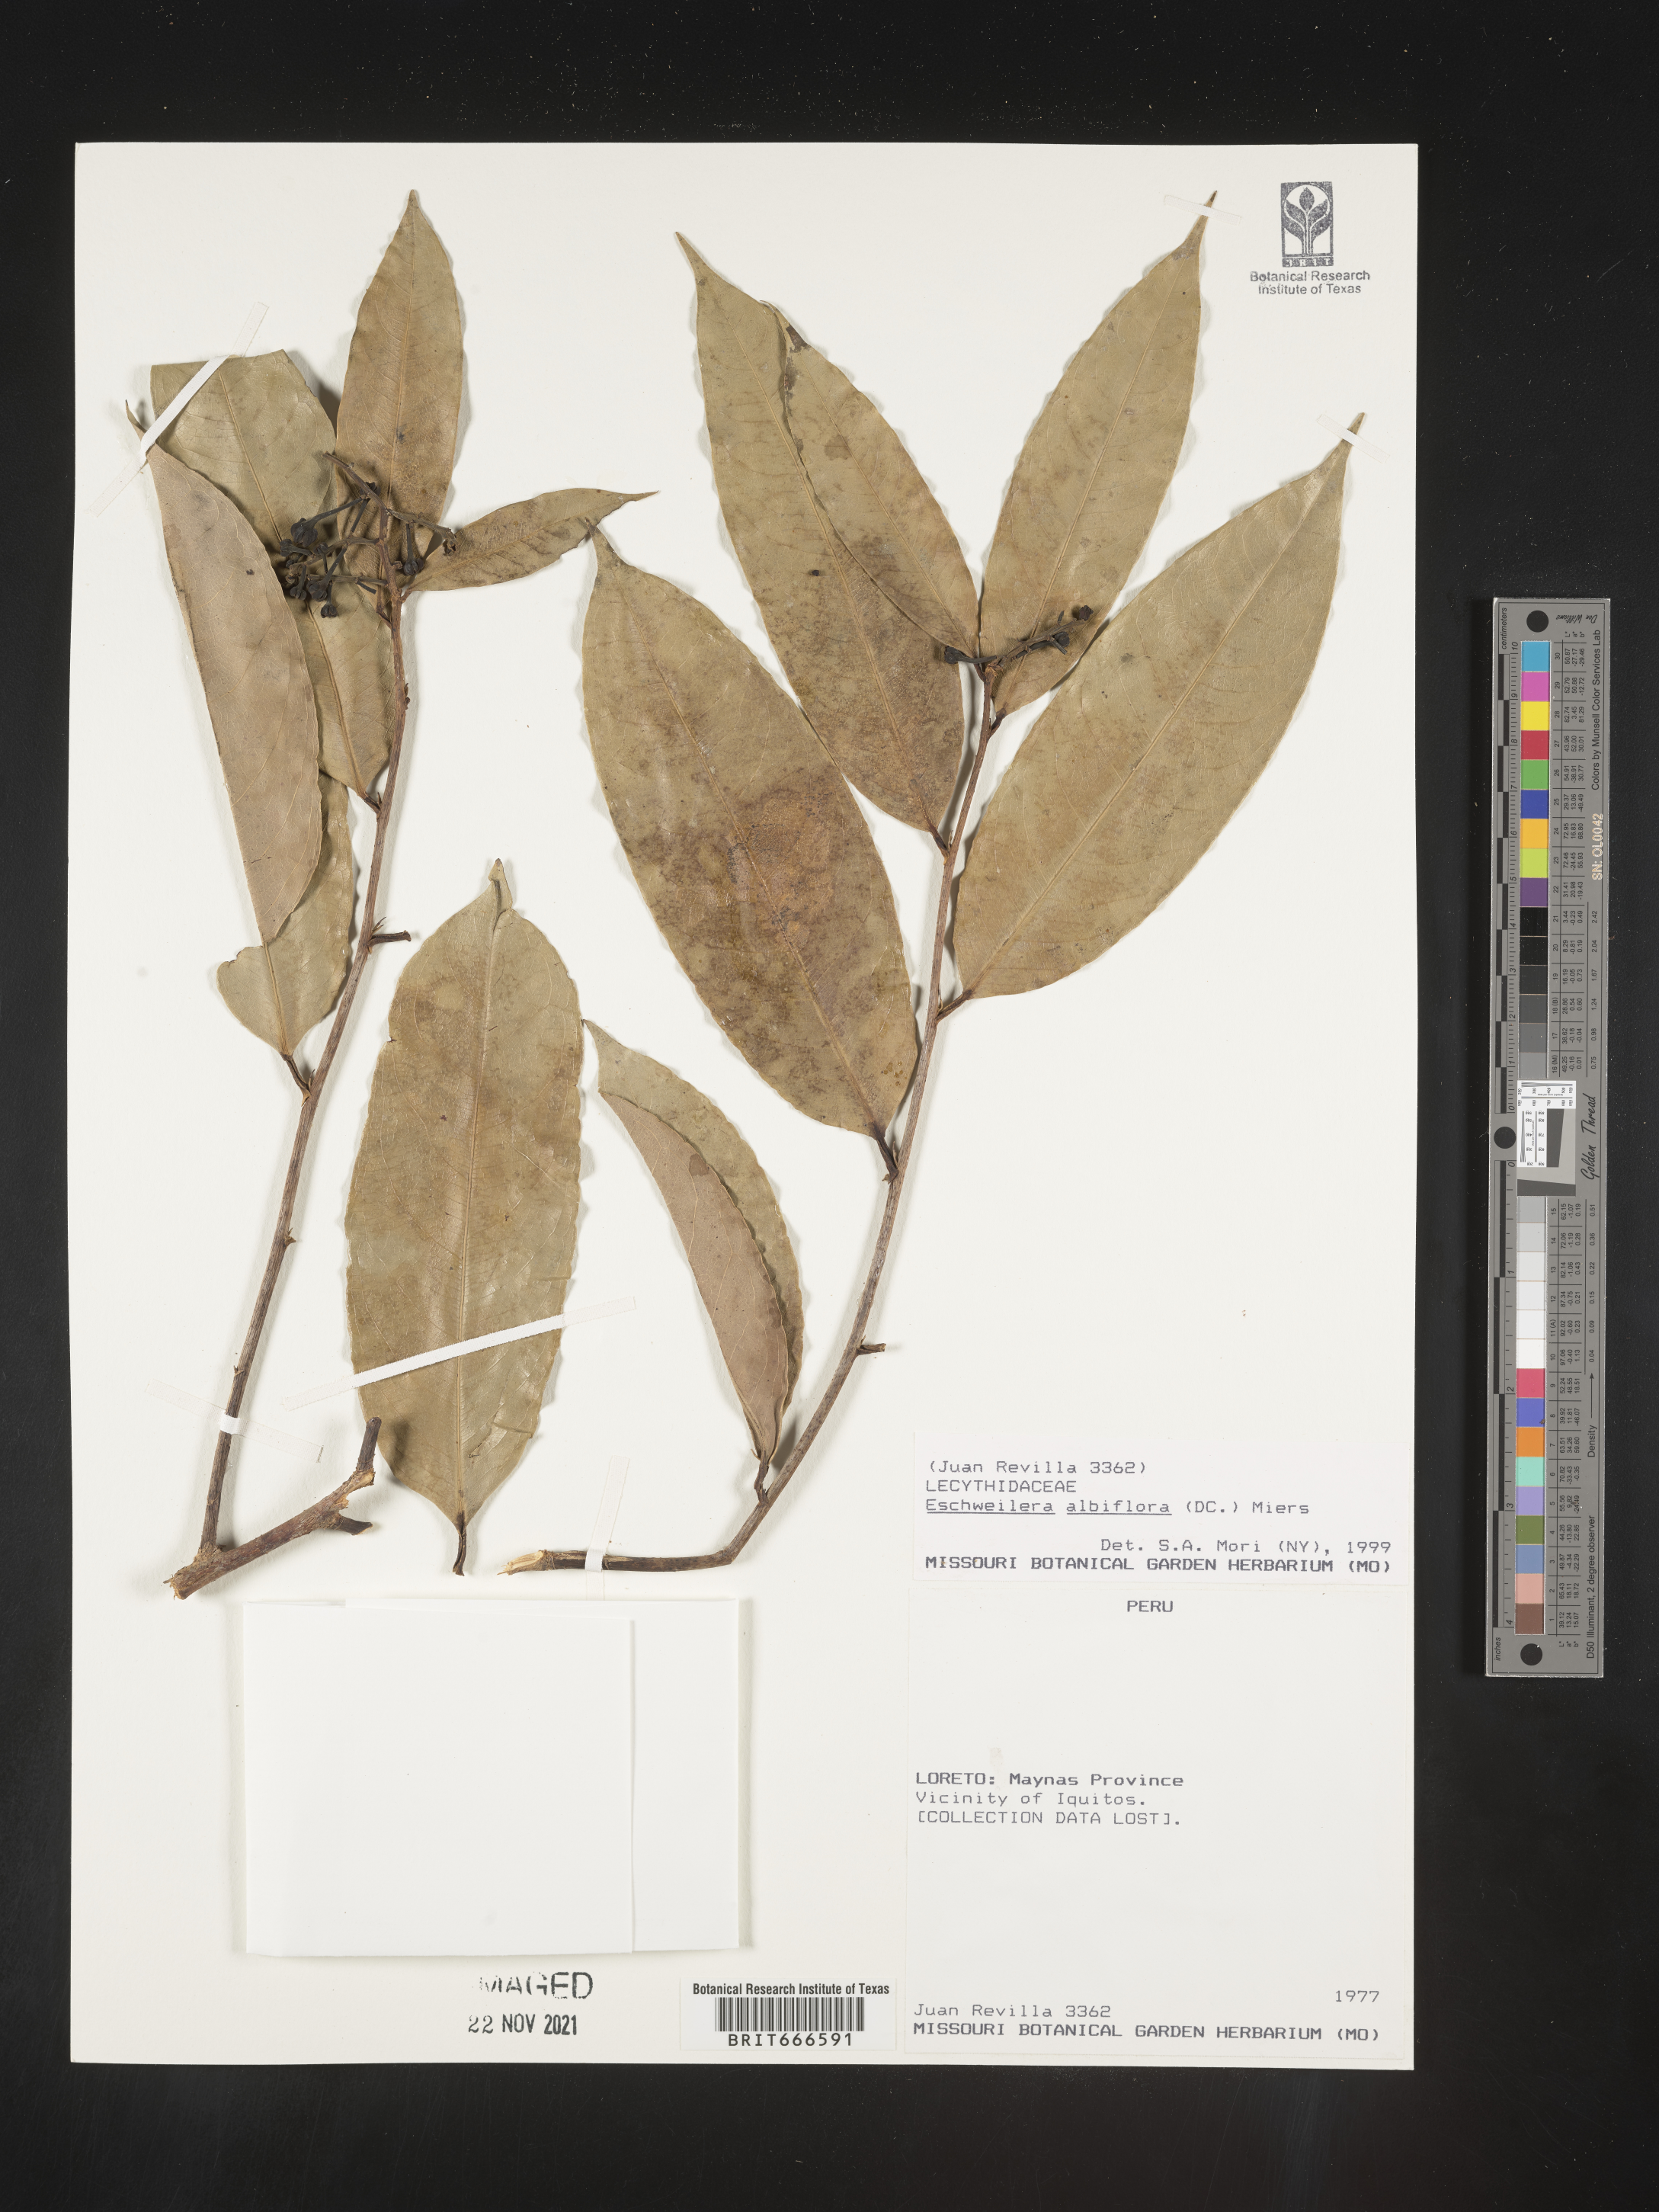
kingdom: Plantae
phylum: Tracheophyta
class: Magnoliopsida
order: Ericales
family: Lecythidaceae
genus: Eschweilera
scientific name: Eschweilera
